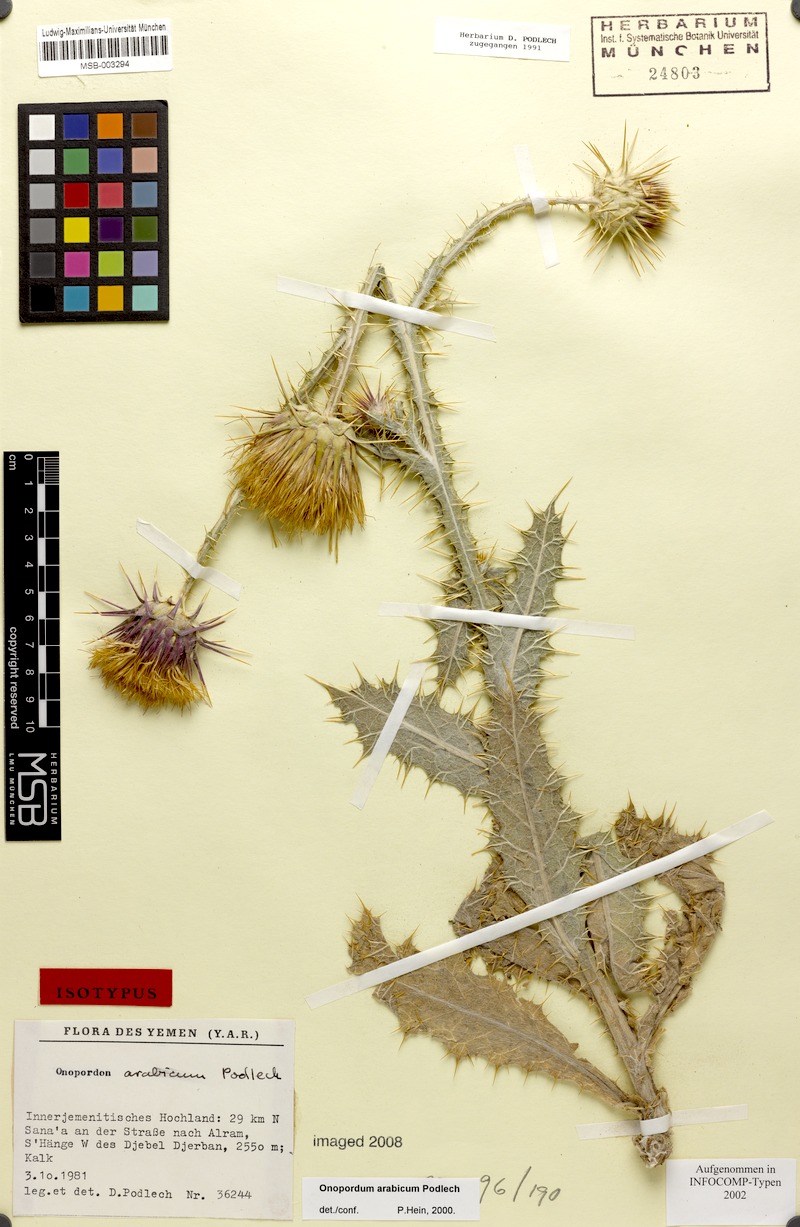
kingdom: Plantae
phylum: Tracheophyta
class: Magnoliopsida
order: Asterales
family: Asteraceae
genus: Onopordum
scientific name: Onopordum podlechii
